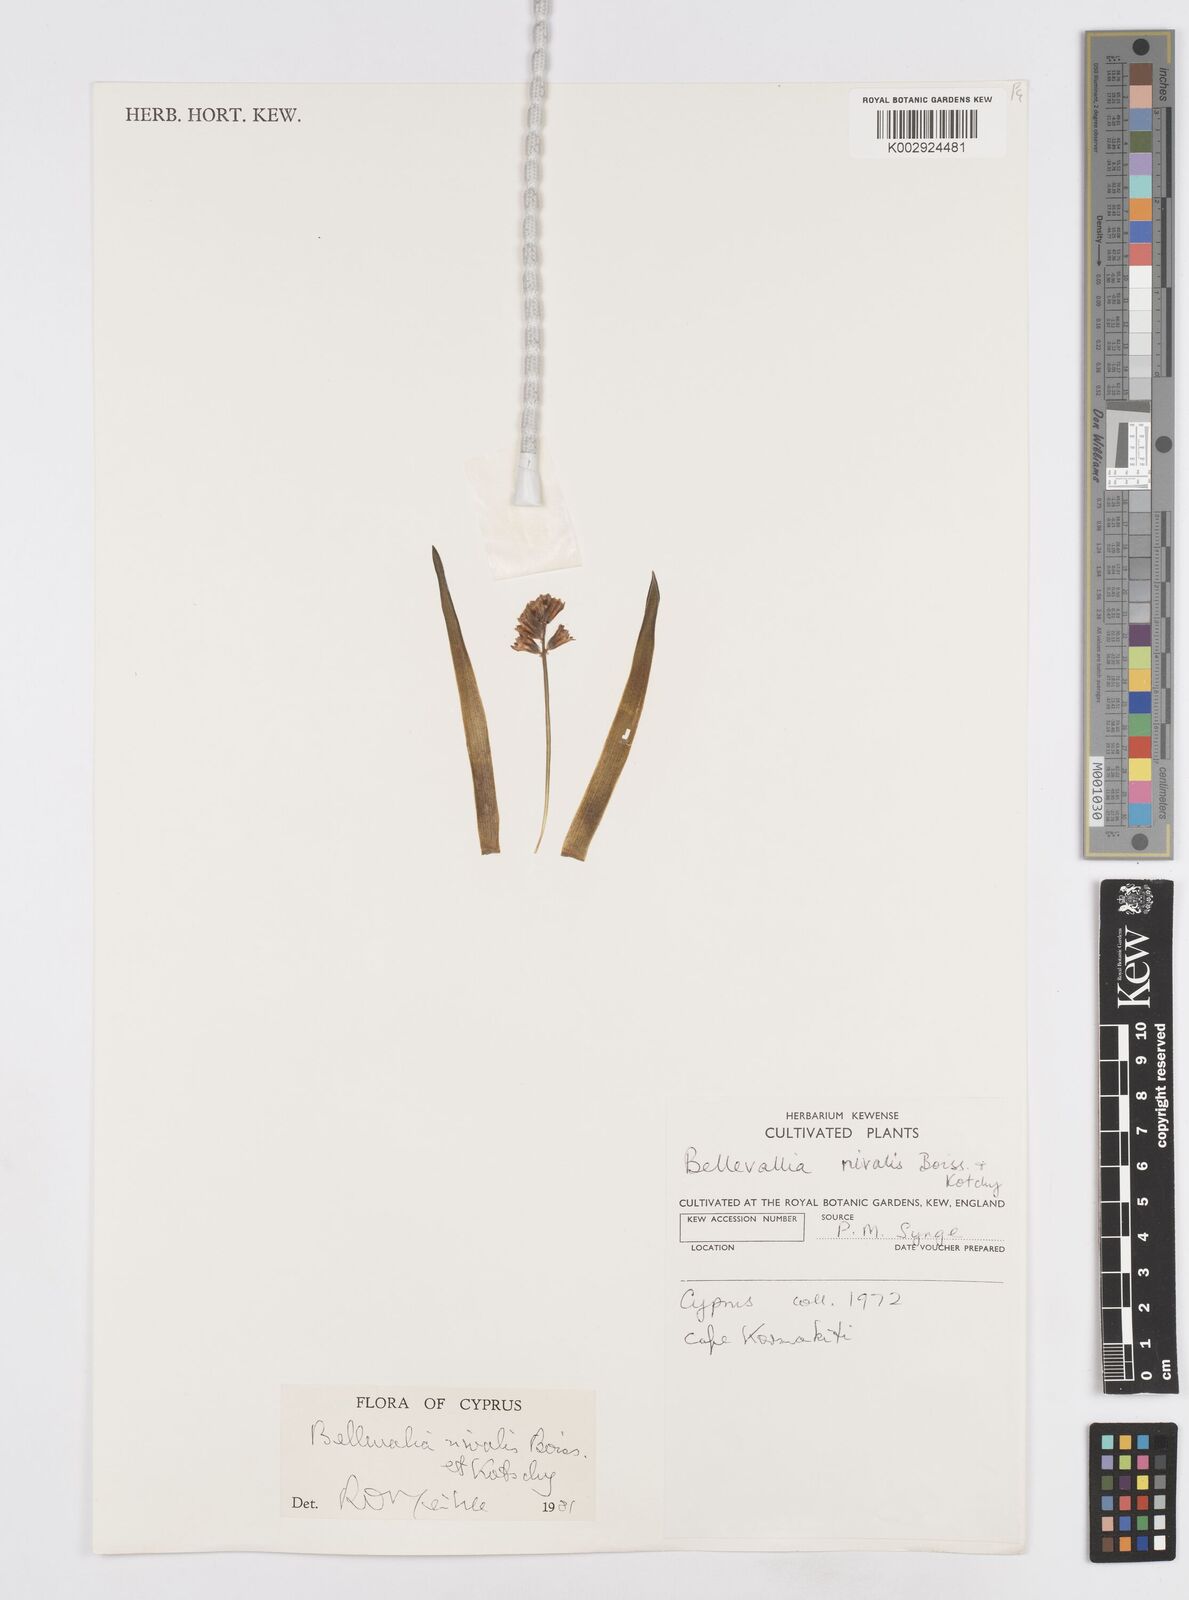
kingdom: Plantae
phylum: Tracheophyta
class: Liliopsida
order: Asparagales
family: Asparagaceae
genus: Bellevalia
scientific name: Bellevalia nivalis
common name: Snow bellevalia
